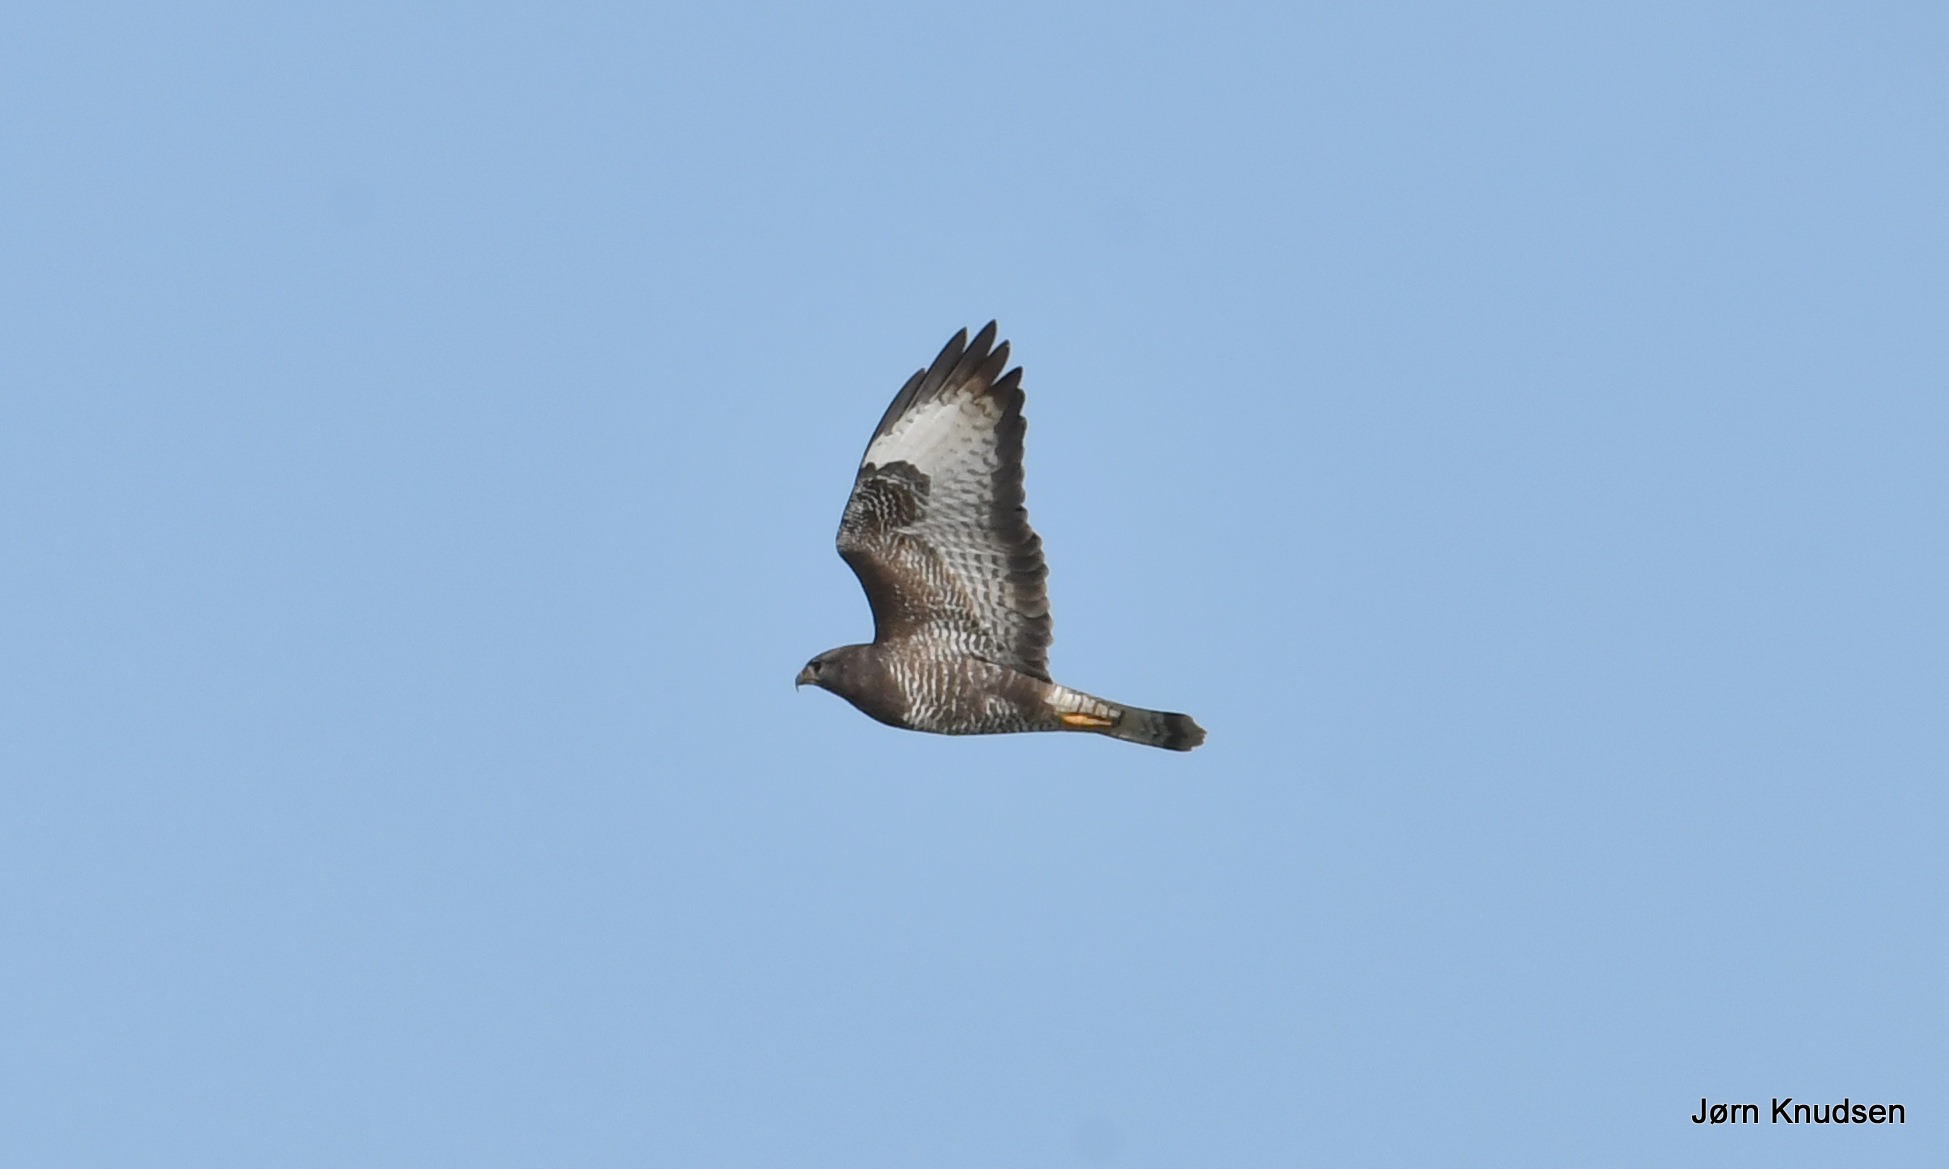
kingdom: Animalia
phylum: Chordata
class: Aves
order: Accipitriformes
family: Accipitridae
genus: Buteo
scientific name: Buteo buteo
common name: Musvåge
